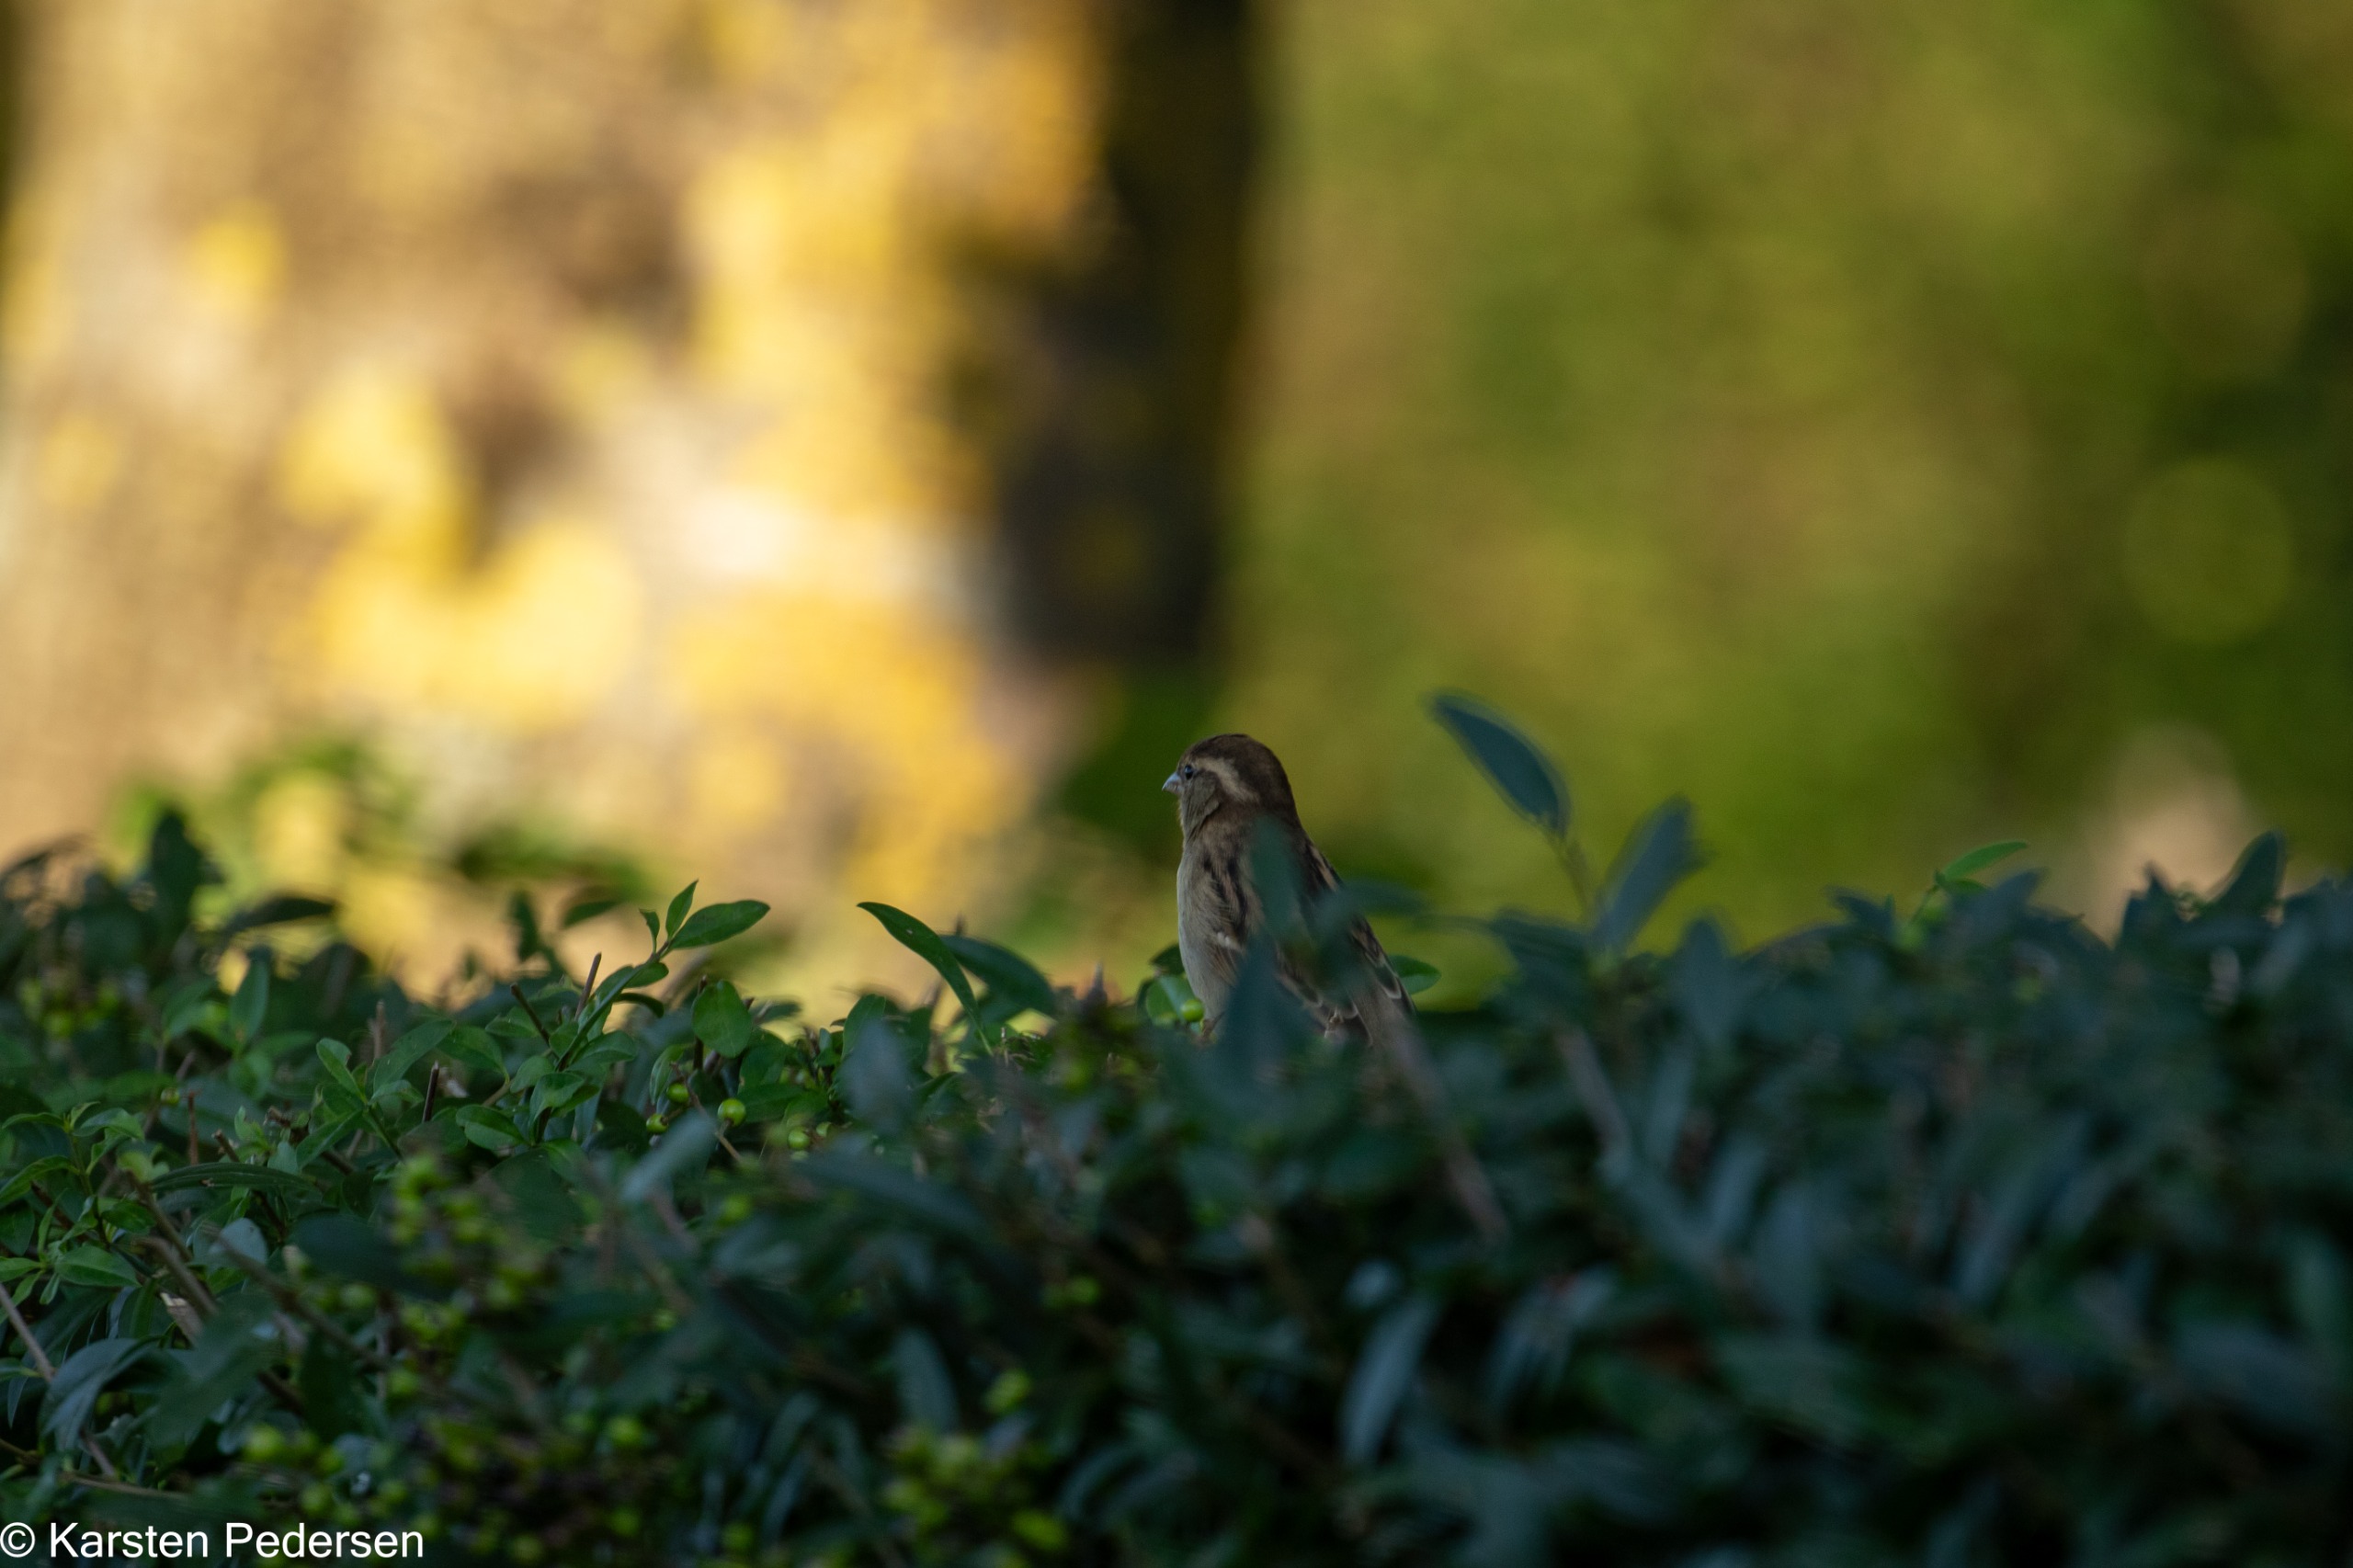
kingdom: Animalia
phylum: Chordata
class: Aves
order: Passeriformes
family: Passeridae
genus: Passer
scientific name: Passer domesticus
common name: Gråspurv
